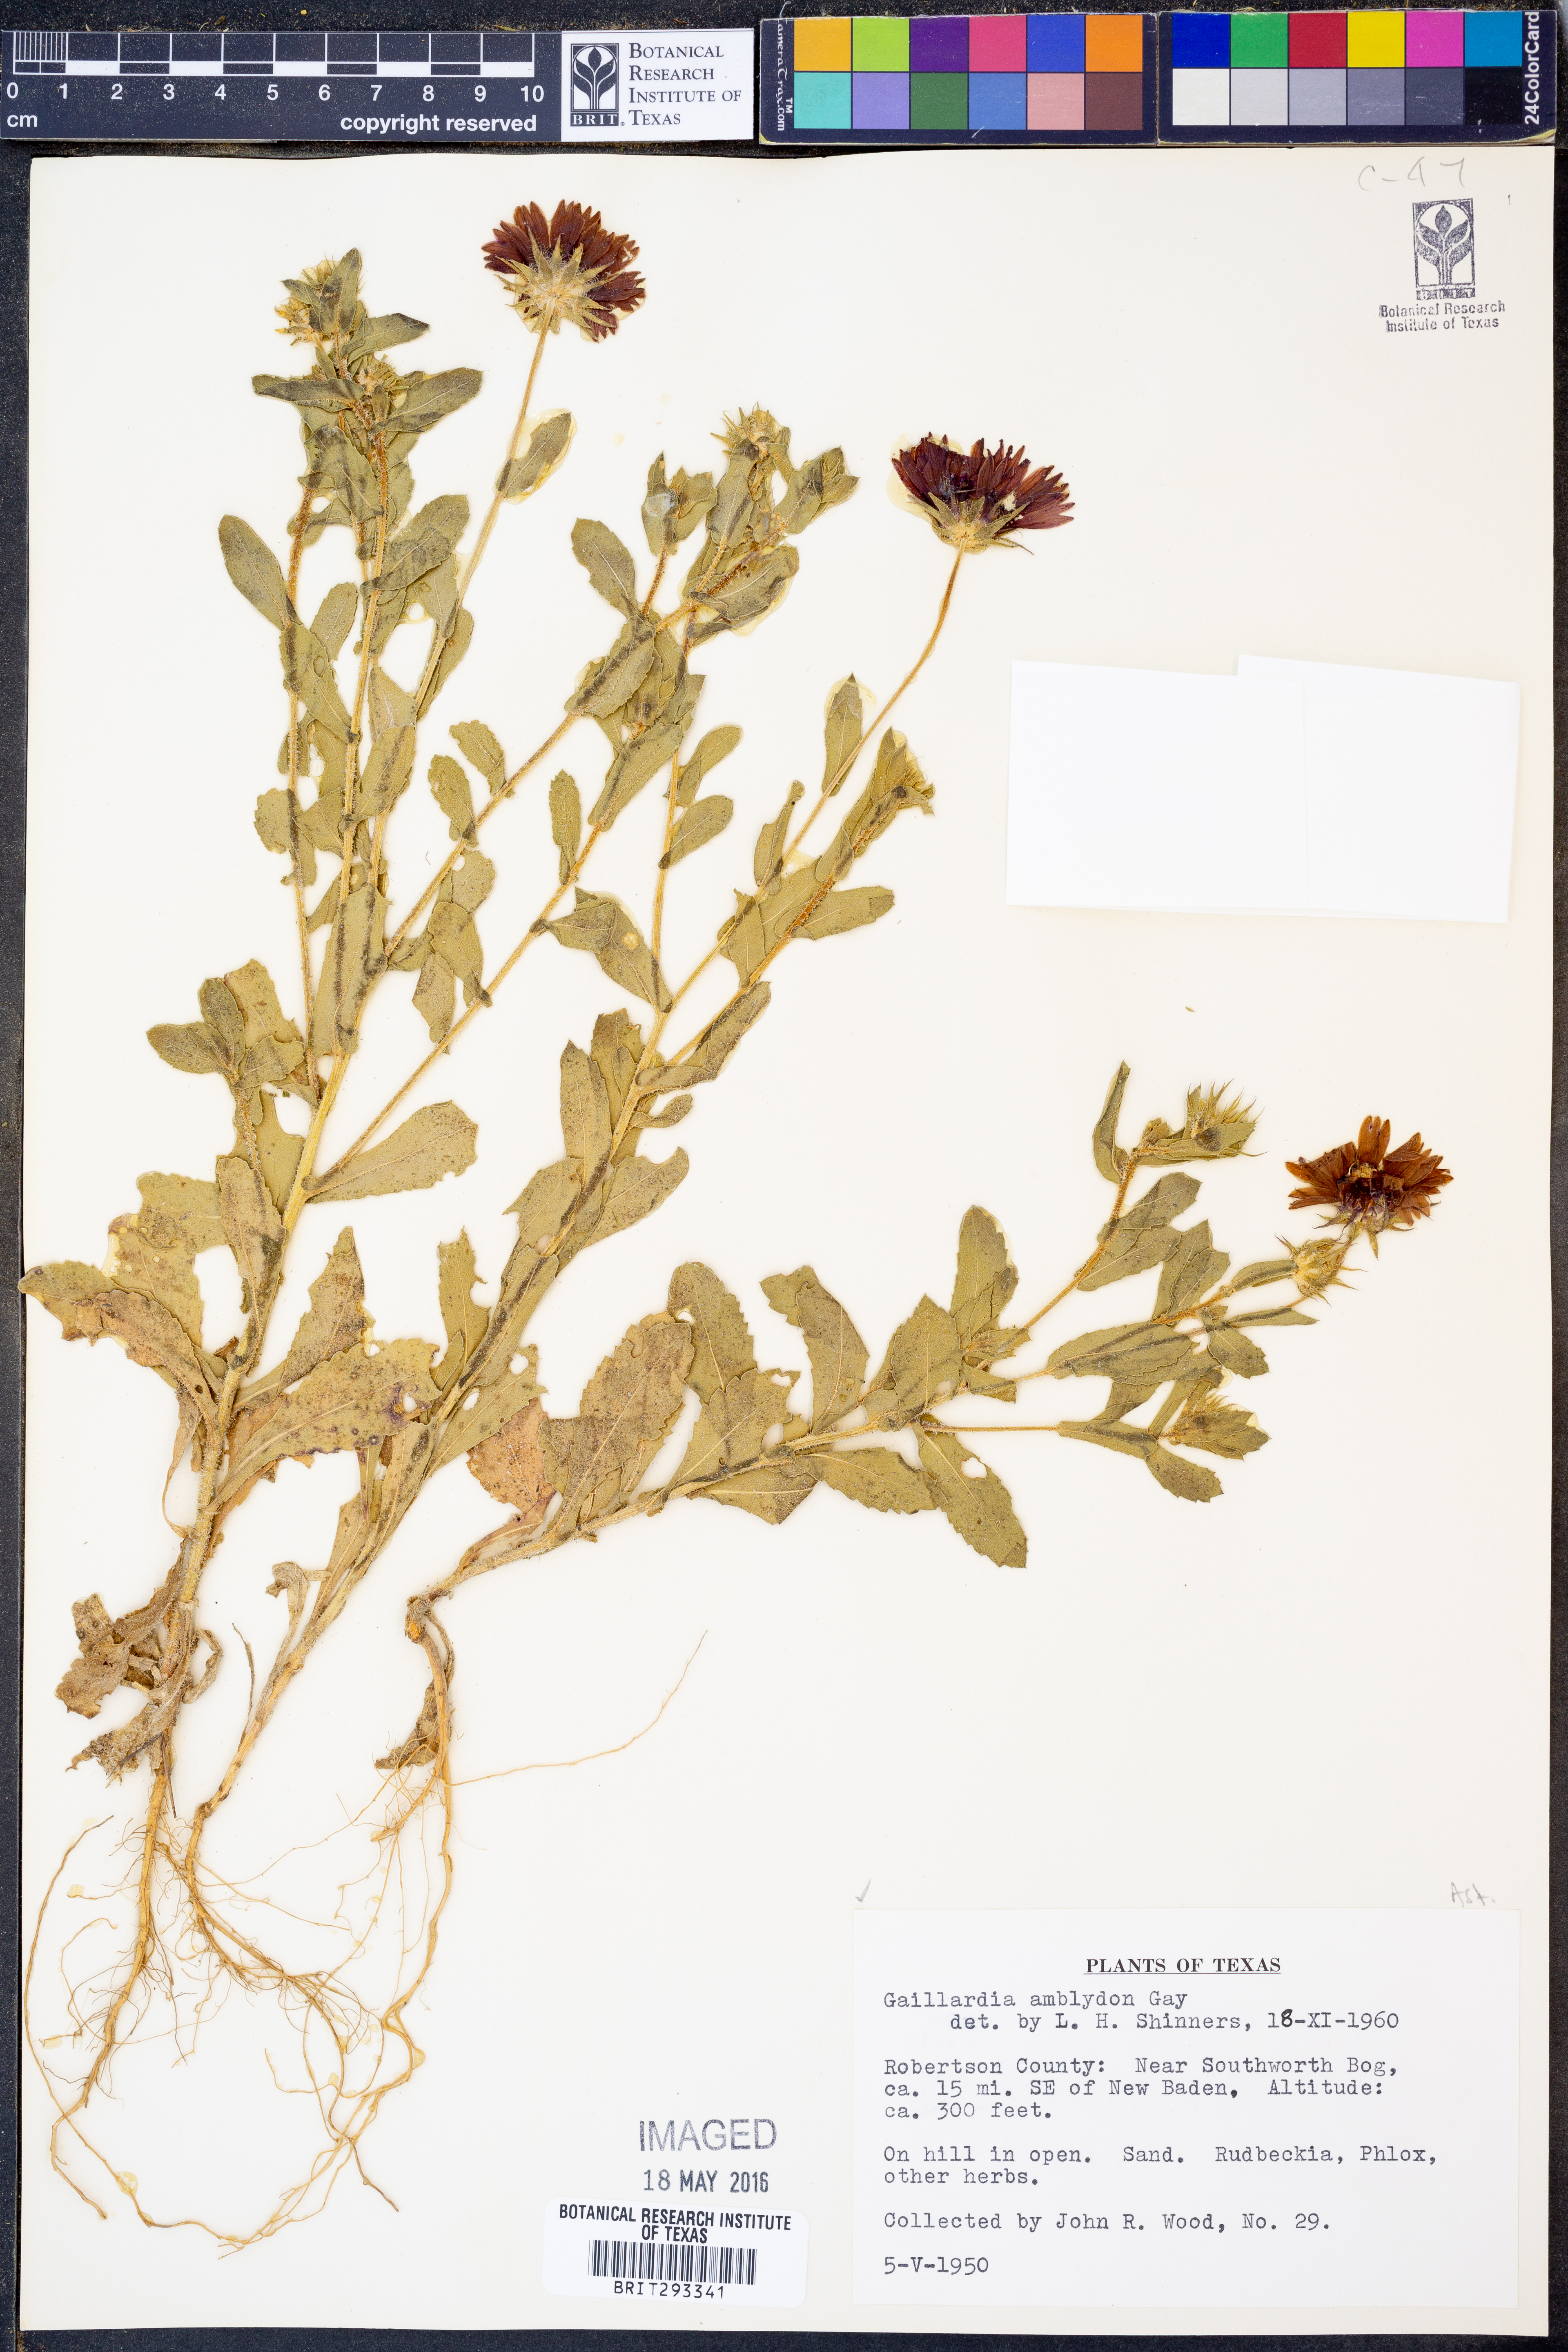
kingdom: Plantae
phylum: Tracheophyta
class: Magnoliopsida
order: Asterales
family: Asteraceae
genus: Gaillardia
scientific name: Gaillardia amblyodon
